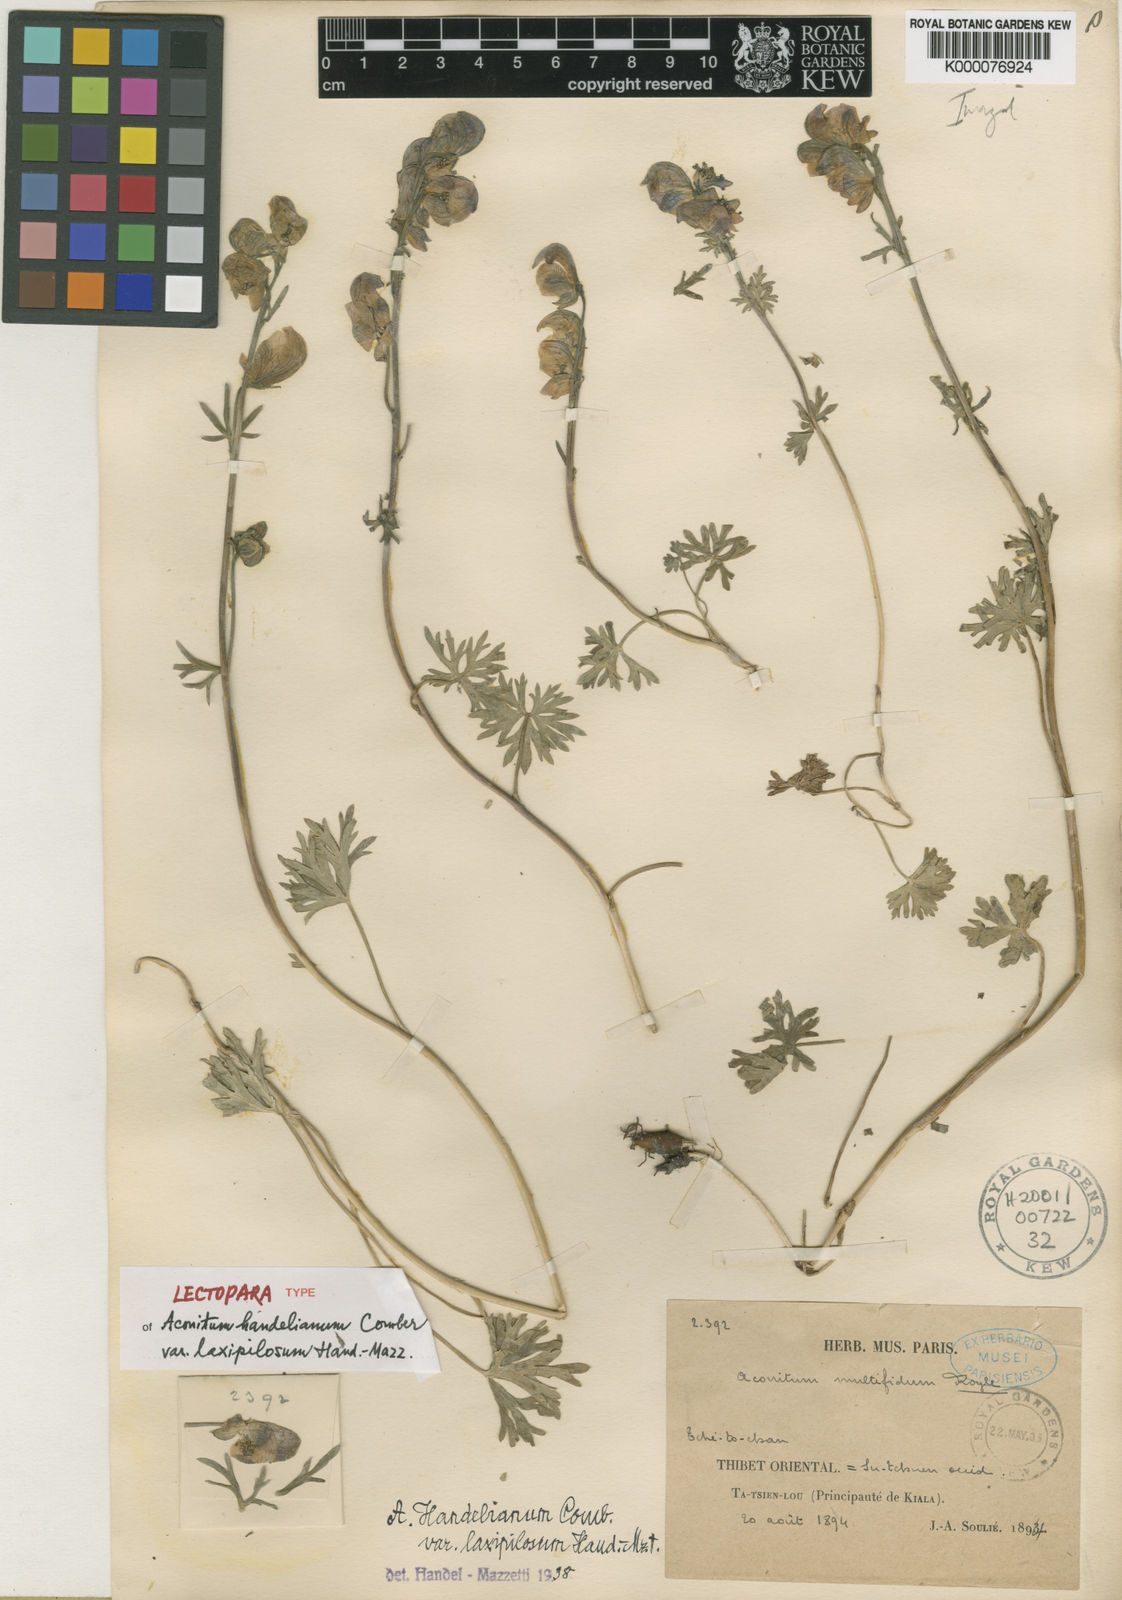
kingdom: Plantae
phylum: Tracheophyta
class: Magnoliopsida
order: Ranunculales
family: Ranunculaceae
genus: Aconitum
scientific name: Aconitum pulchellum
